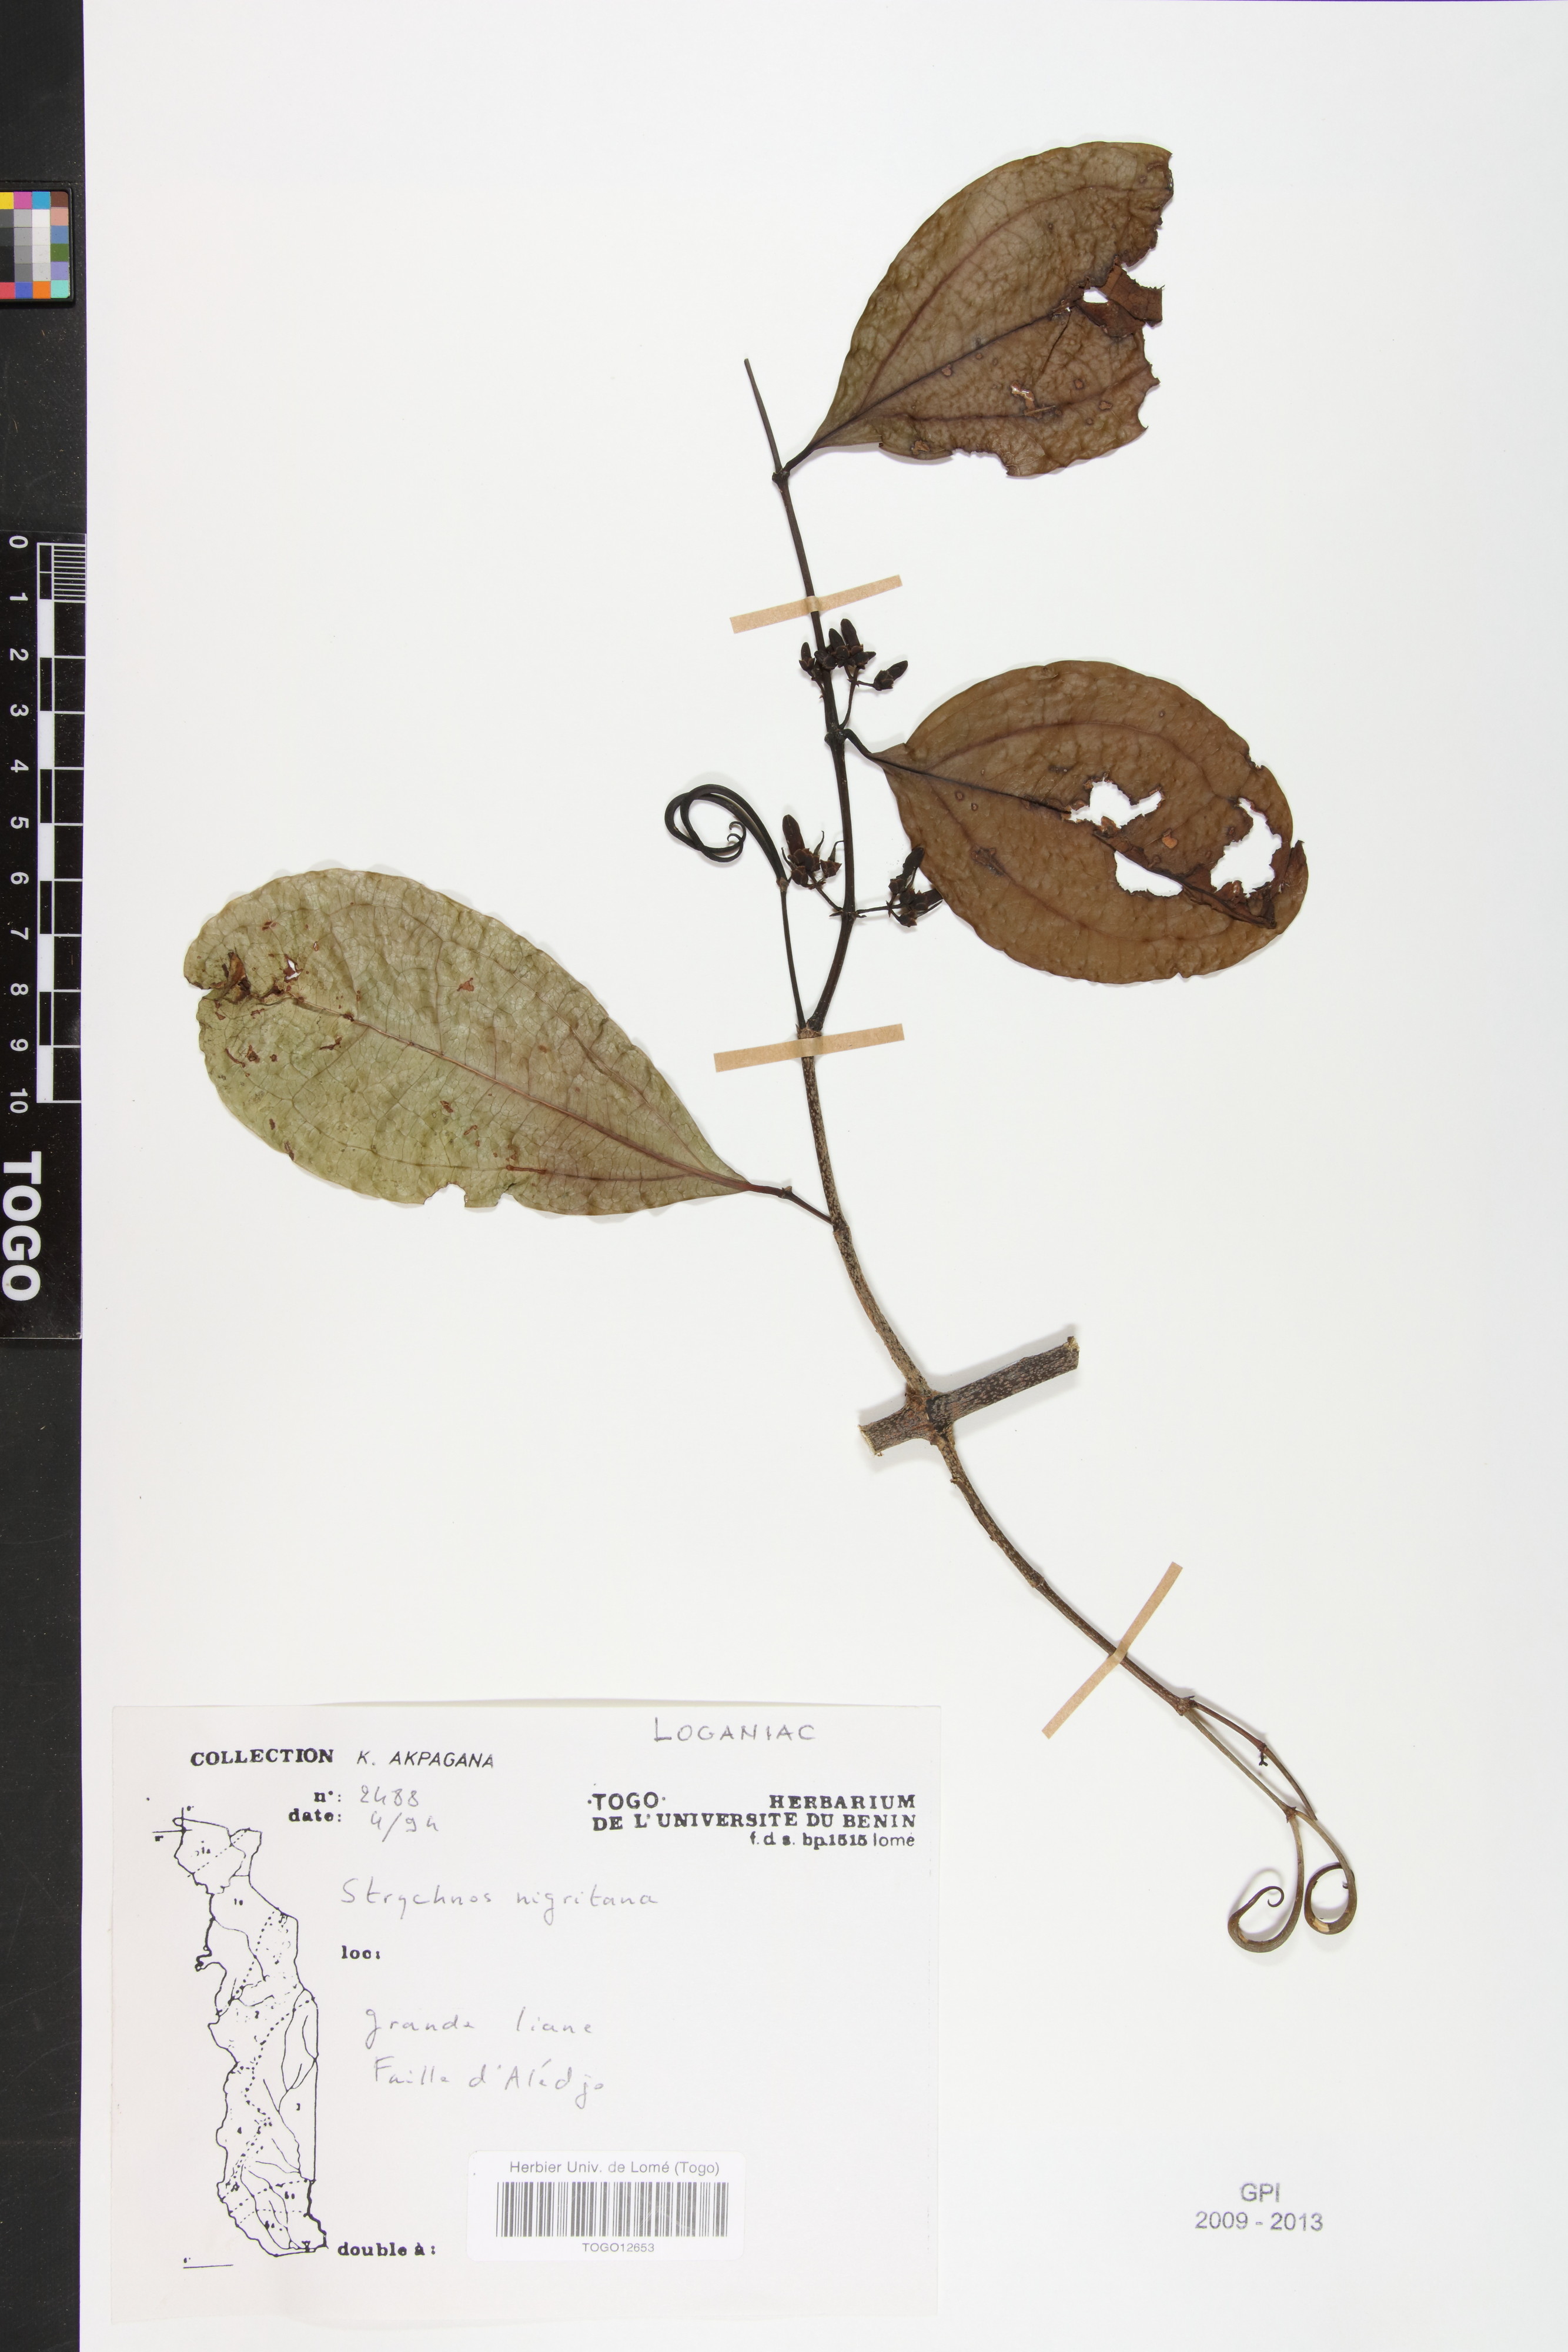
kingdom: Plantae
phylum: Tracheophyta
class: Magnoliopsida
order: Gentianales
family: Loganiaceae
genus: Strychnos
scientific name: Strychnos nigritana
